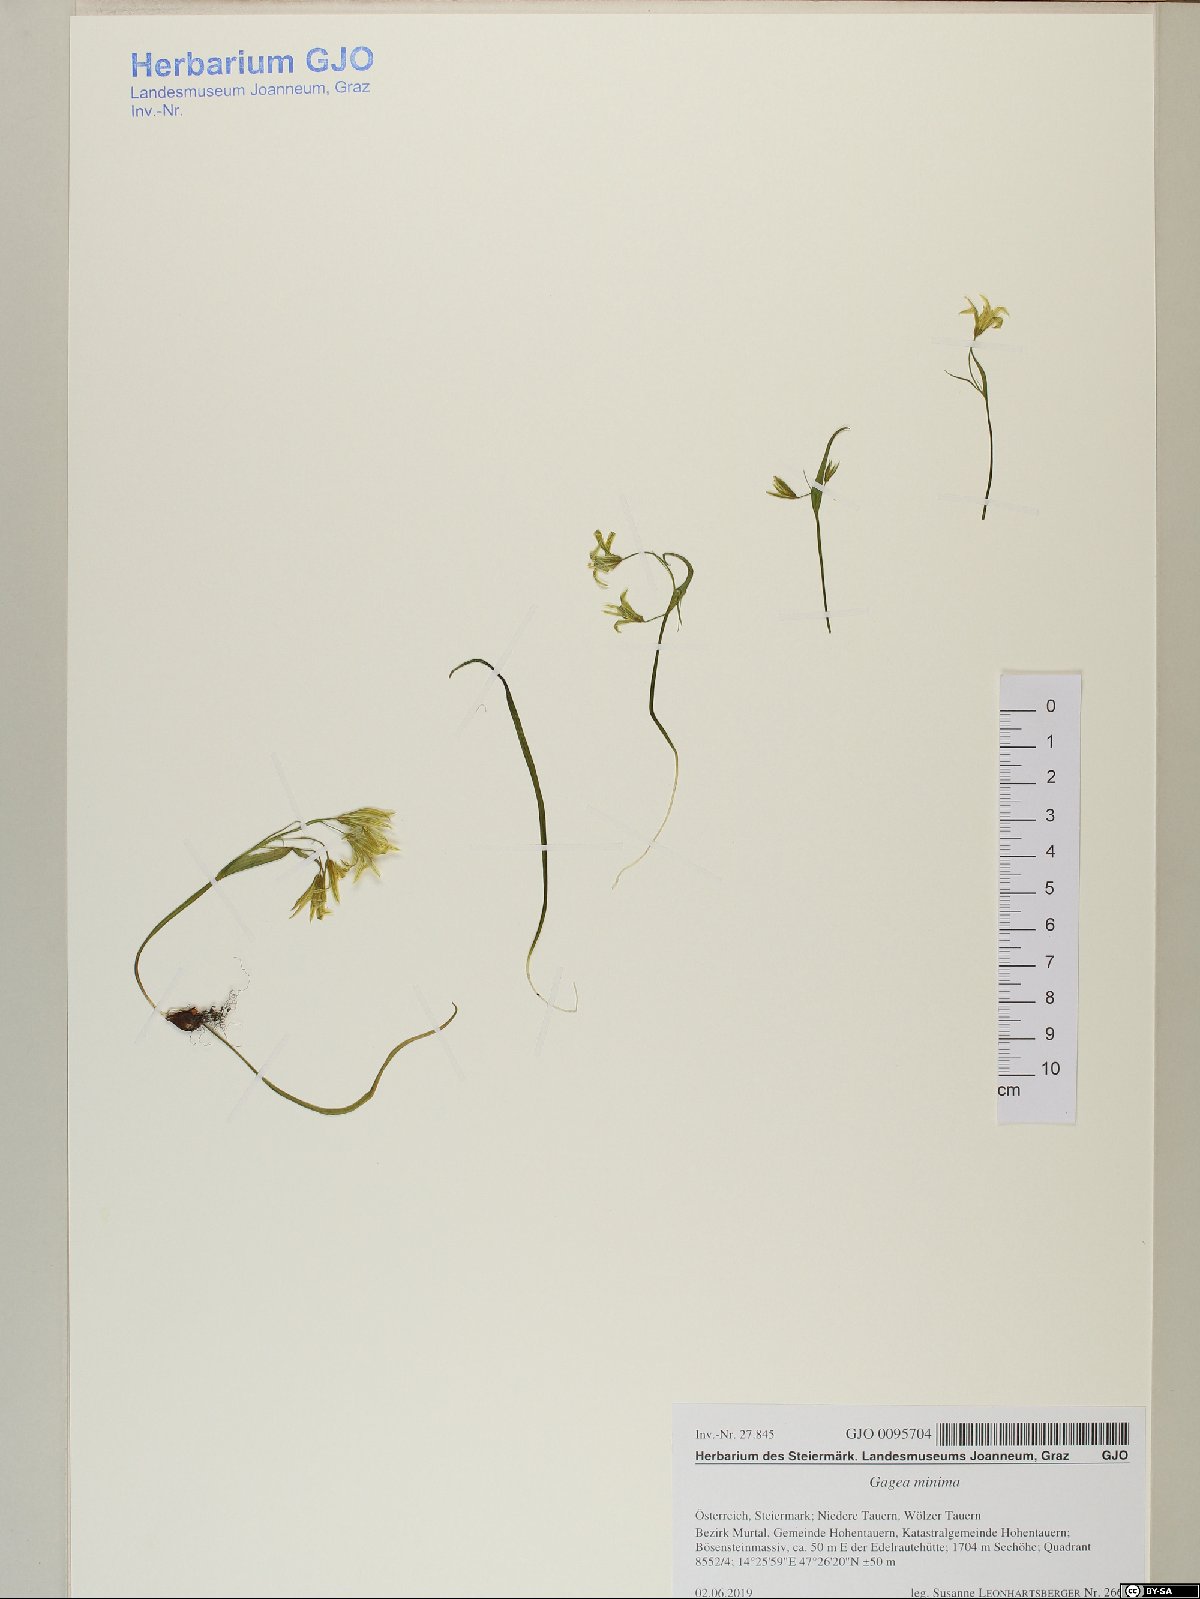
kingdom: Plantae
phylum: Tracheophyta
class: Liliopsida
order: Liliales
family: Liliaceae
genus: Gagea
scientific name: Gagea minima
